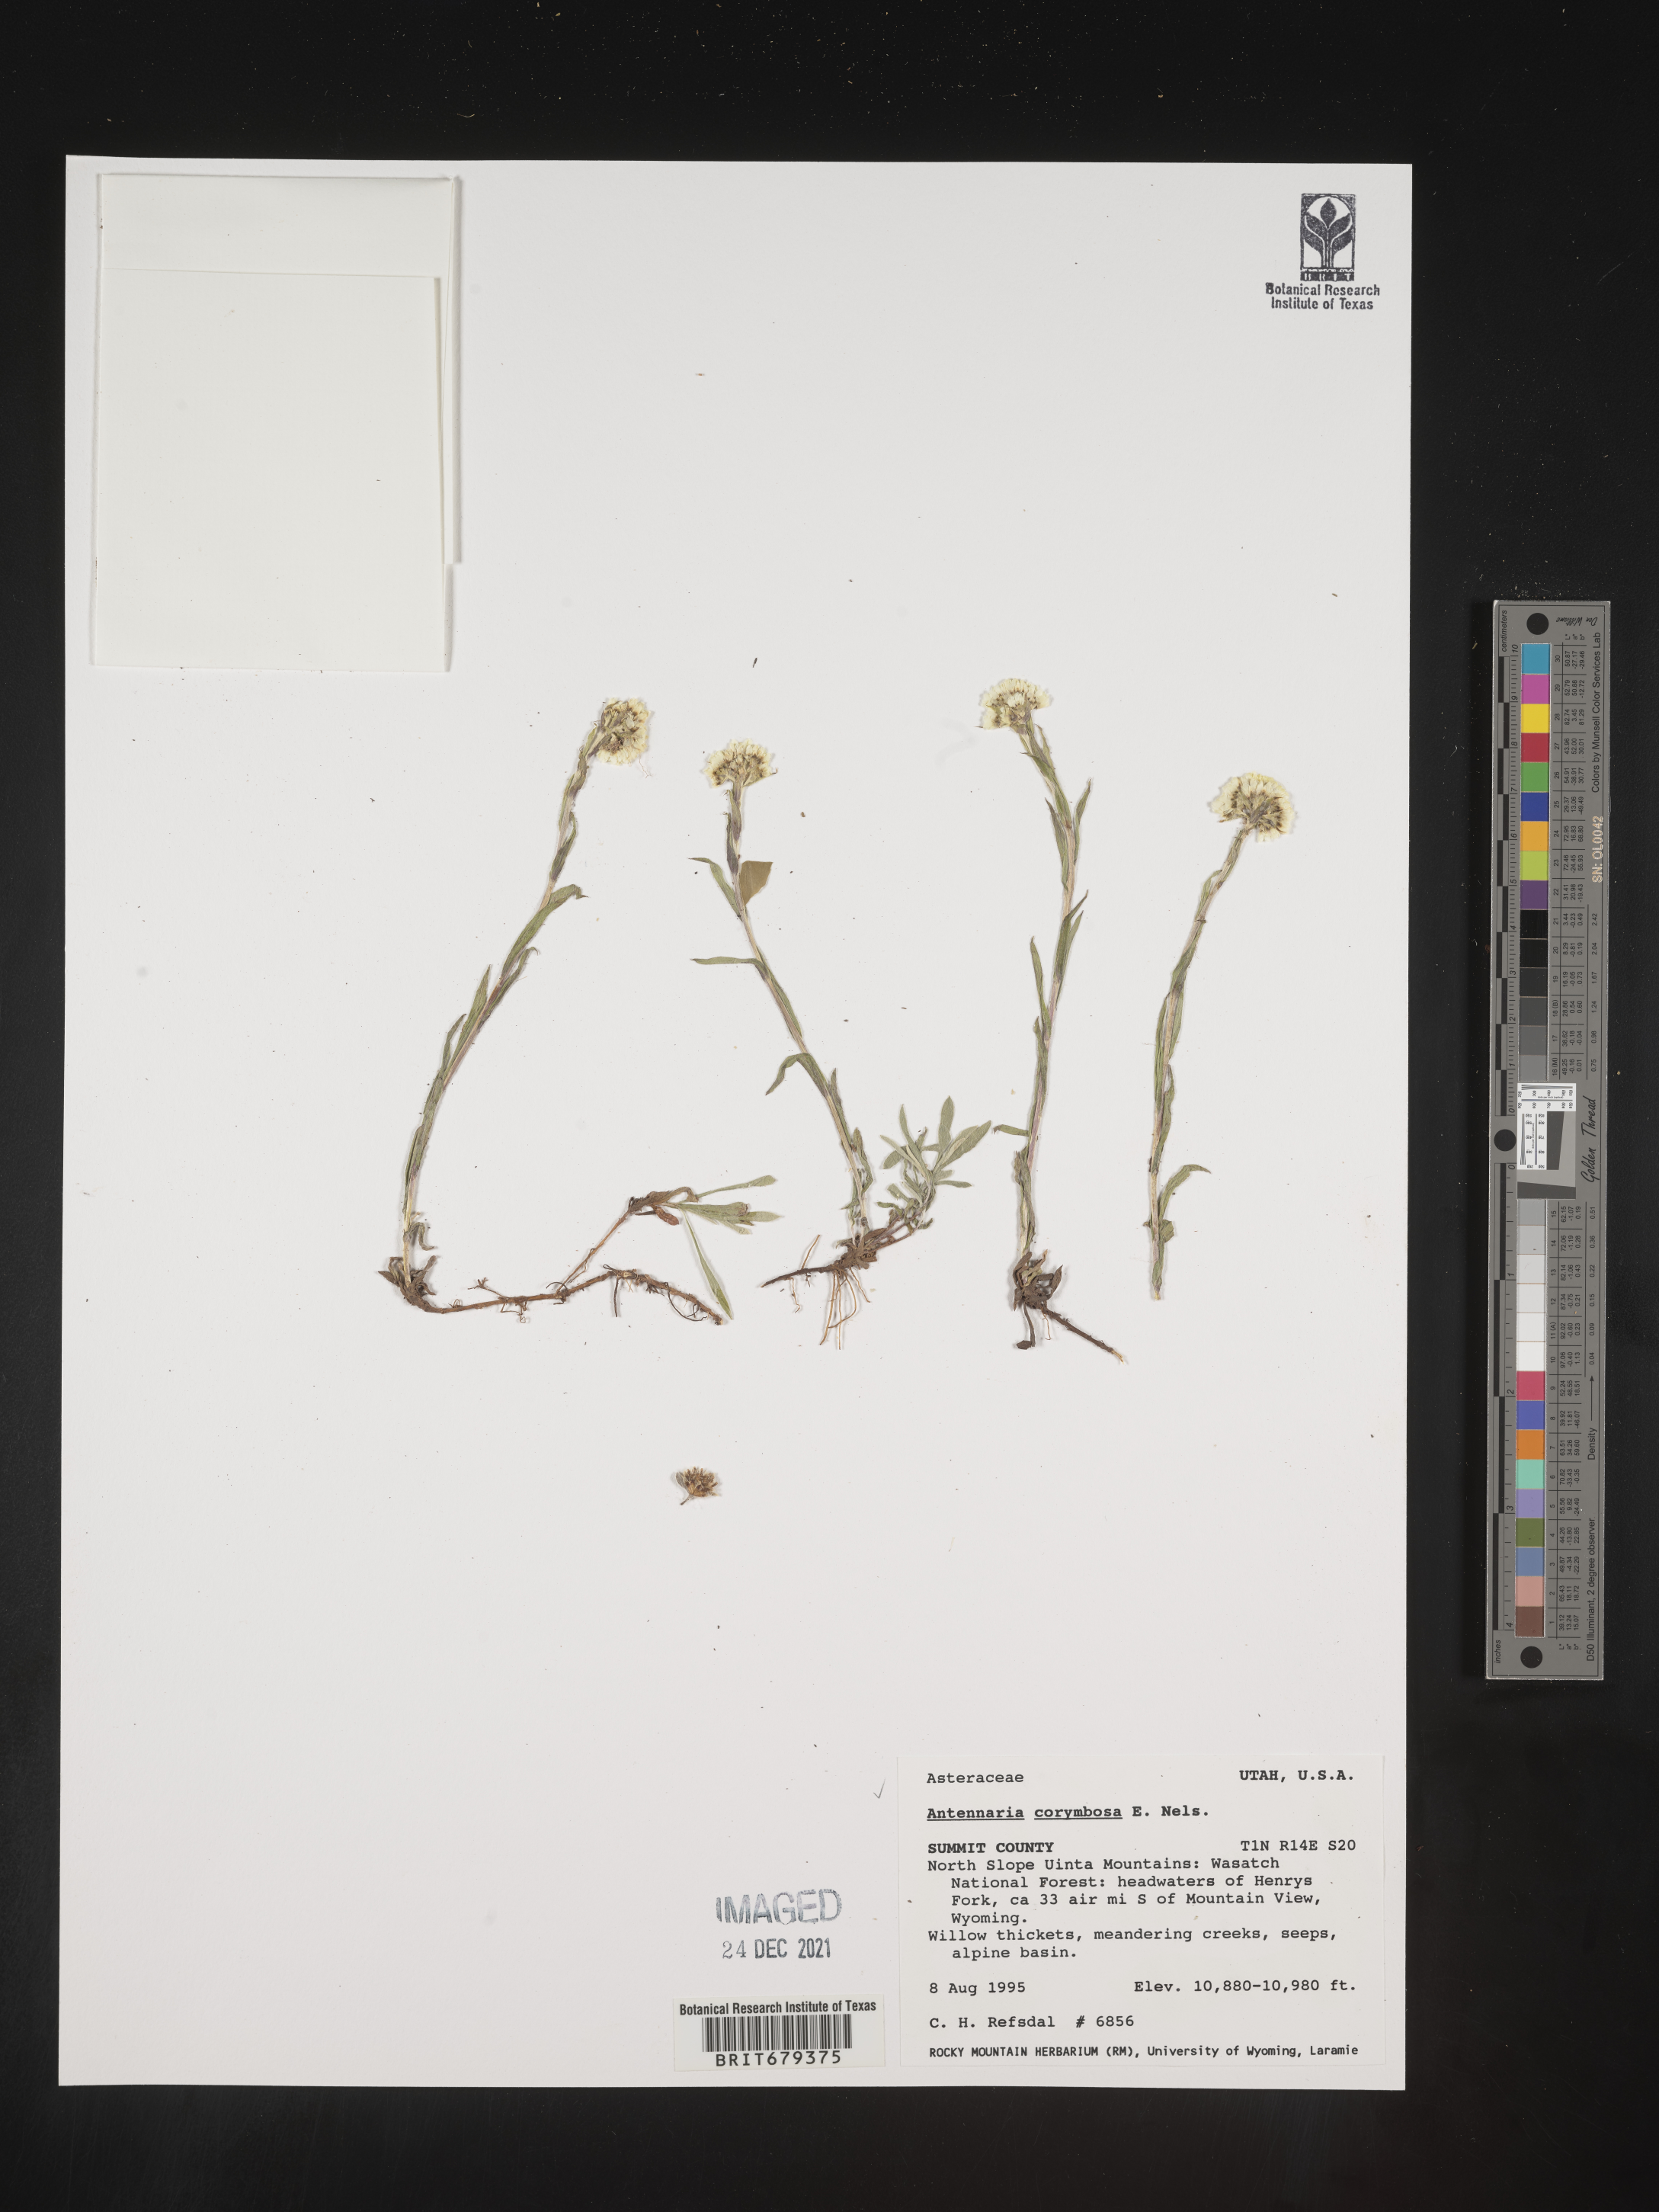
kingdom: Plantae
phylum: Tracheophyta
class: Magnoliopsida
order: Asterales
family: Asteraceae
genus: Antennaria
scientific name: Antennaria corymbosa
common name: Meadow pussytoes
